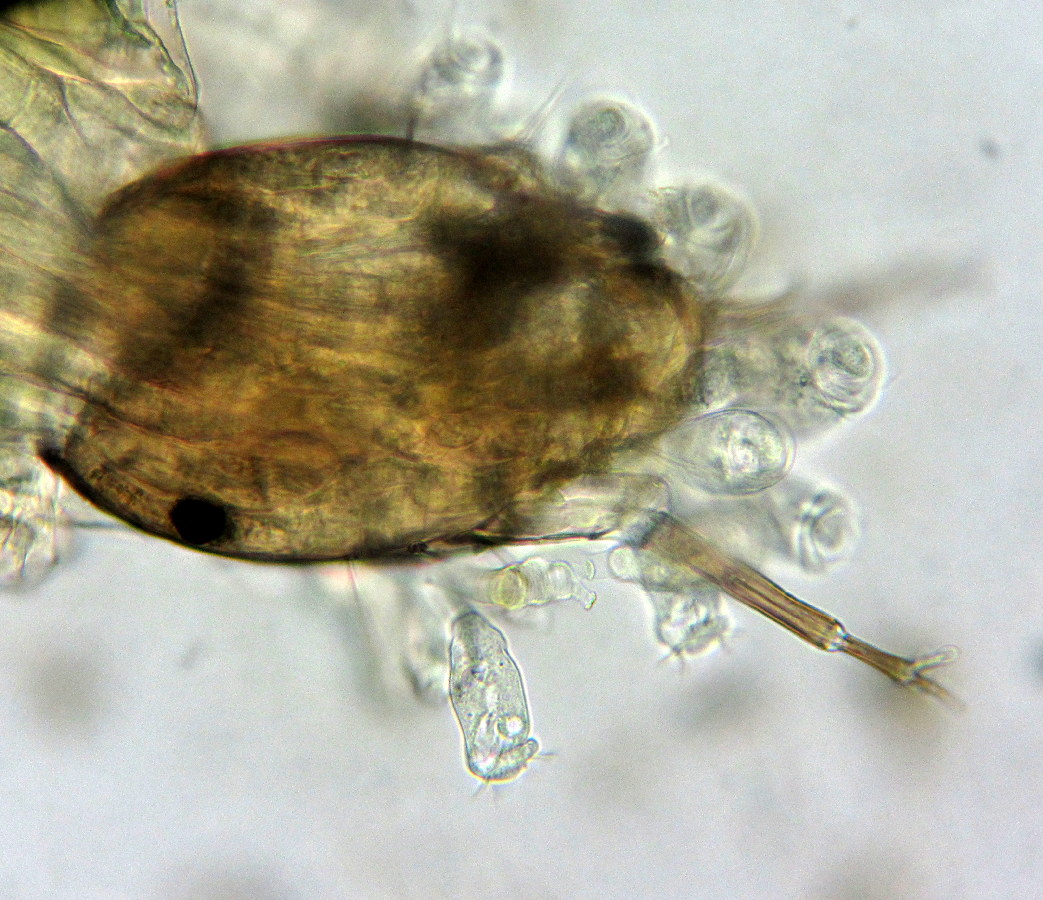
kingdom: Chromista
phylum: Ciliophora
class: Oligohymenophorea
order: Peritrichida
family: Epistylididae
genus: Epistylis
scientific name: Epistylis
